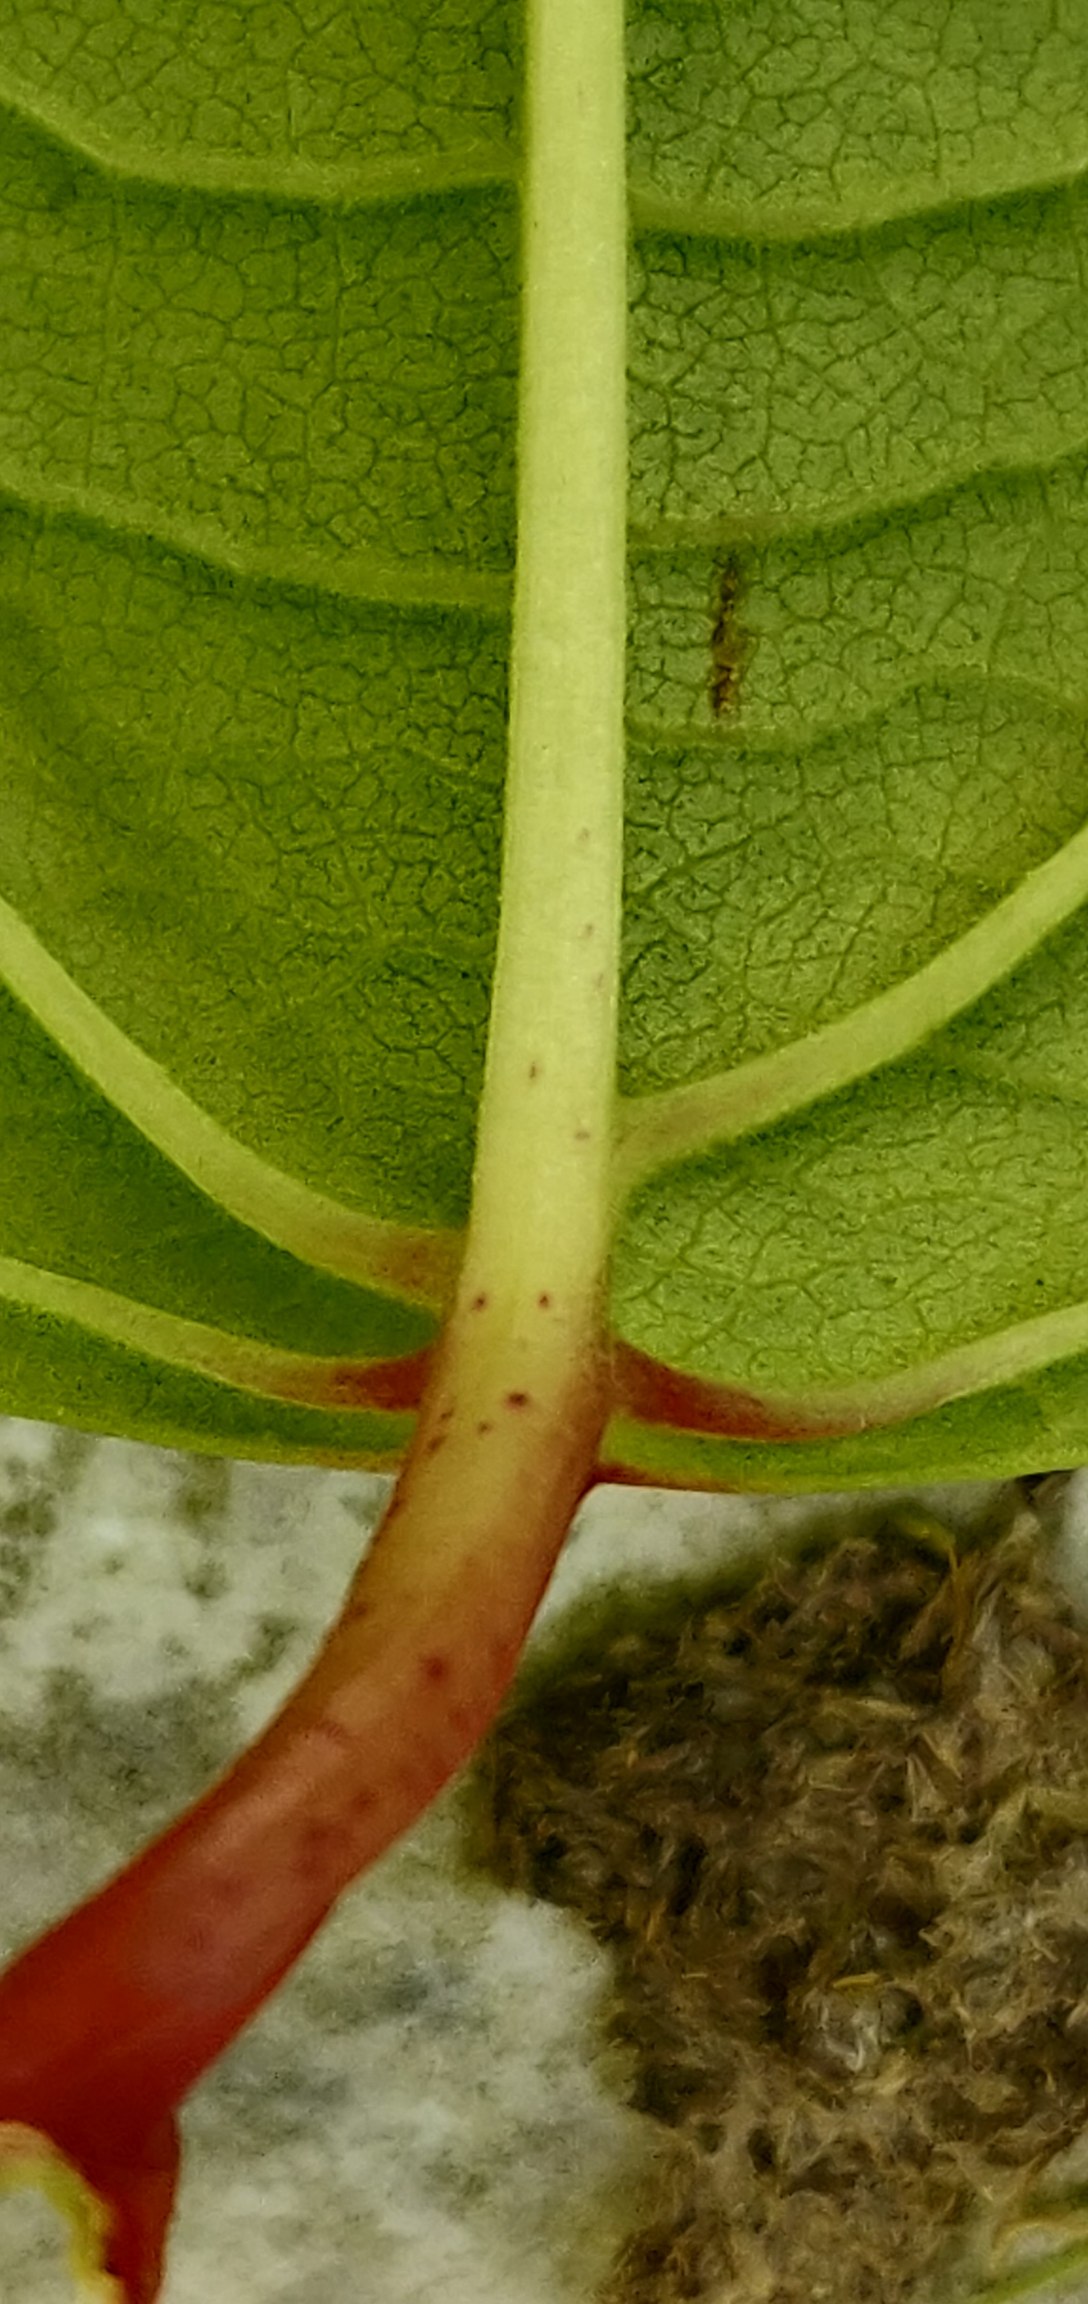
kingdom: Plantae
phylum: Tracheophyta
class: Magnoliopsida
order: Caryophyllales
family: Polygonaceae
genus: Reynoutria
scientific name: Reynoutria japonica
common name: Japan-pileurt
